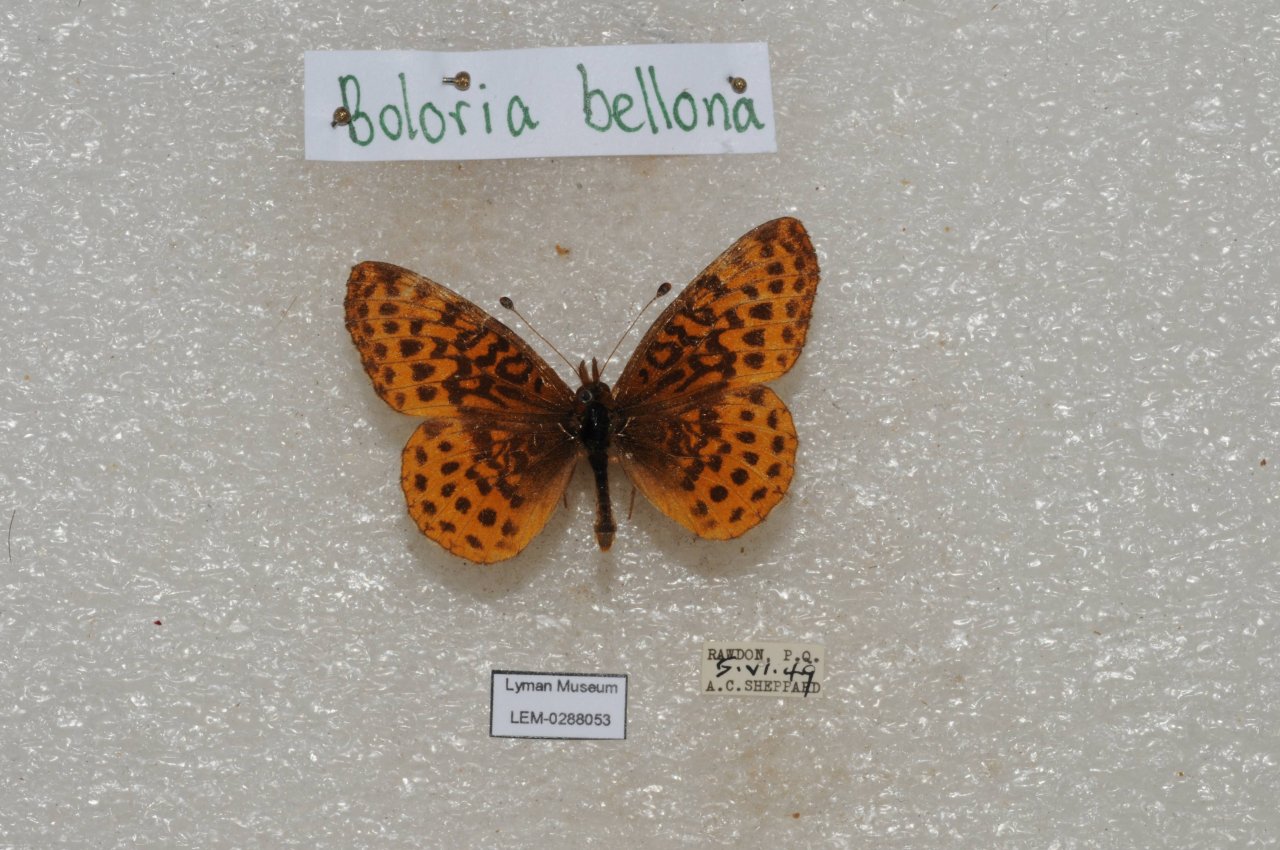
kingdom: Animalia
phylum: Arthropoda
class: Insecta
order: Lepidoptera
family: Nymphalidae
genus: Clossiana
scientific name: Clossiana toddi
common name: Meadow Fritillary
